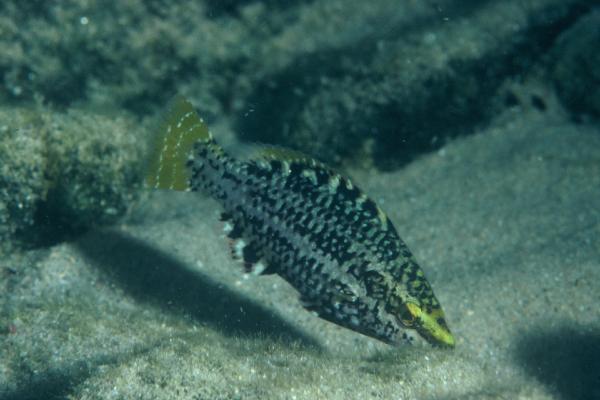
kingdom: Animalia
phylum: Chordata
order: Perciformes
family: Scaridae
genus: Scarus
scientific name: Scarus falcipinnis
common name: Greenbelly parrotfish
